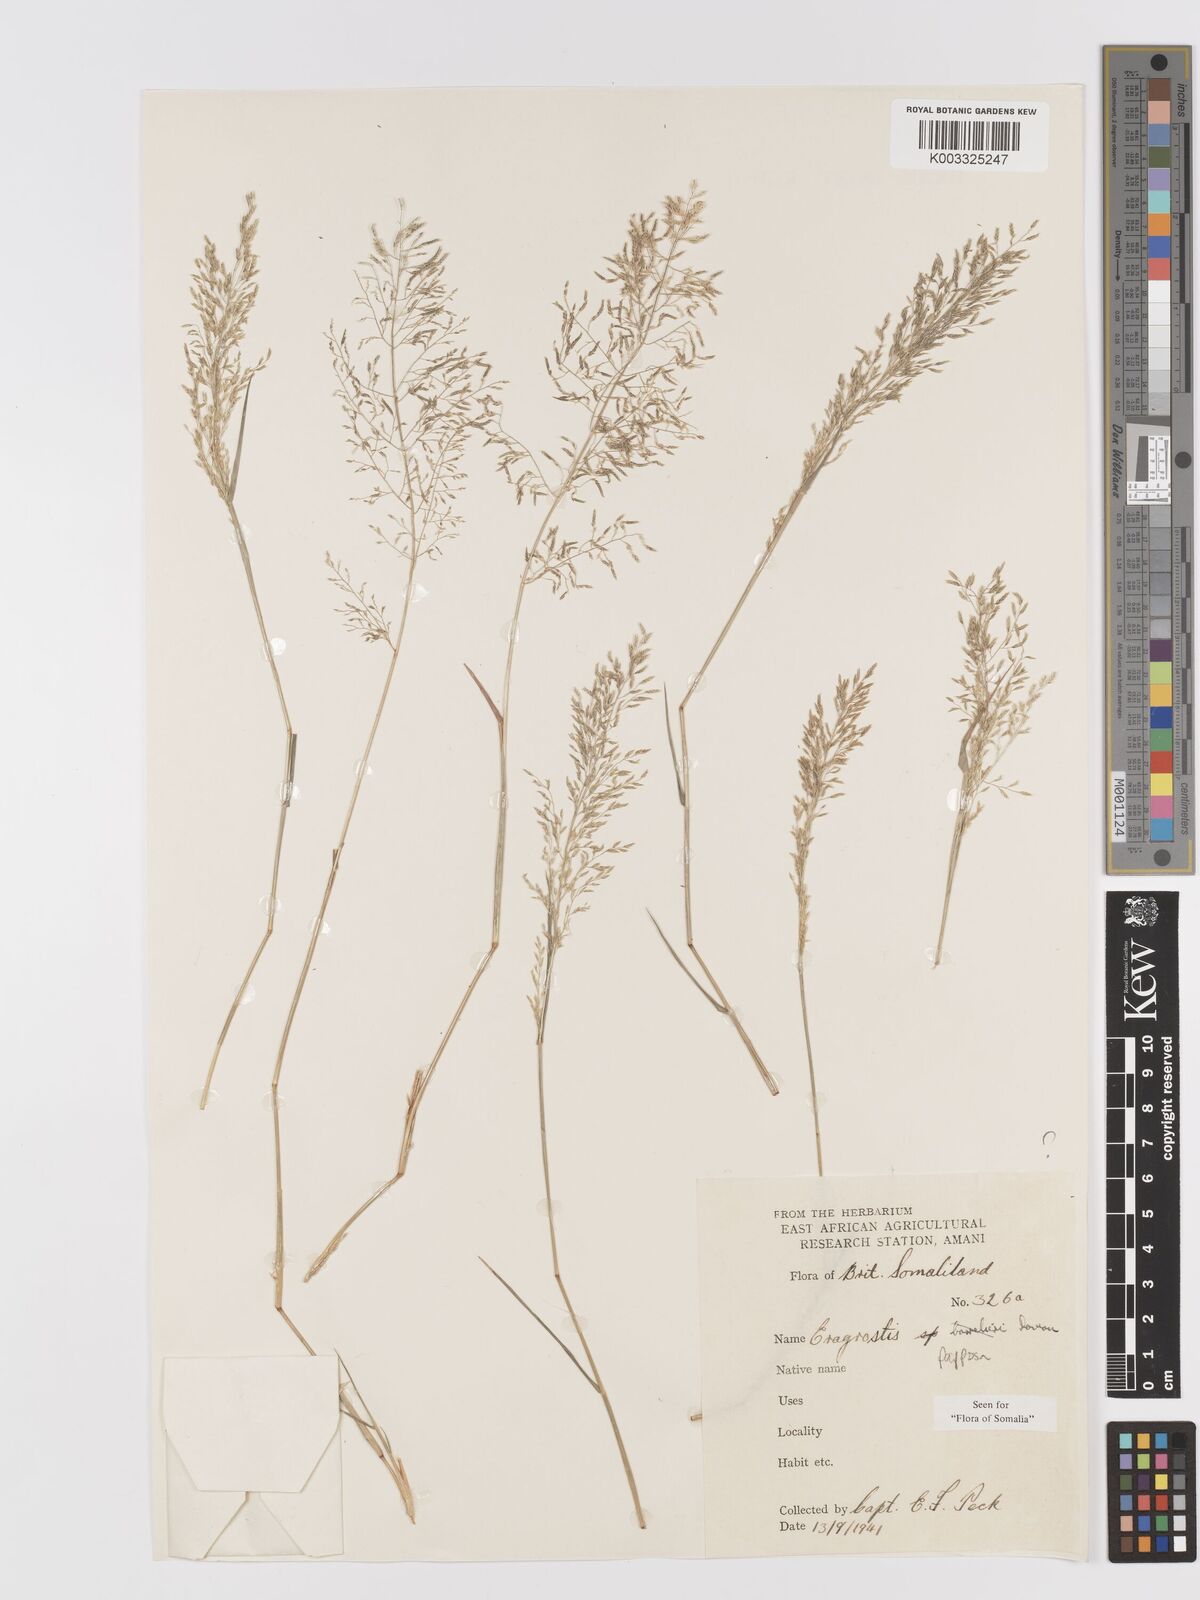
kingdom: Plantae
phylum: Tracheophyta
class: Liliopsida
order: Poales
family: Poaceae
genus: Eragrostis
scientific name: Eragrostis papposa
